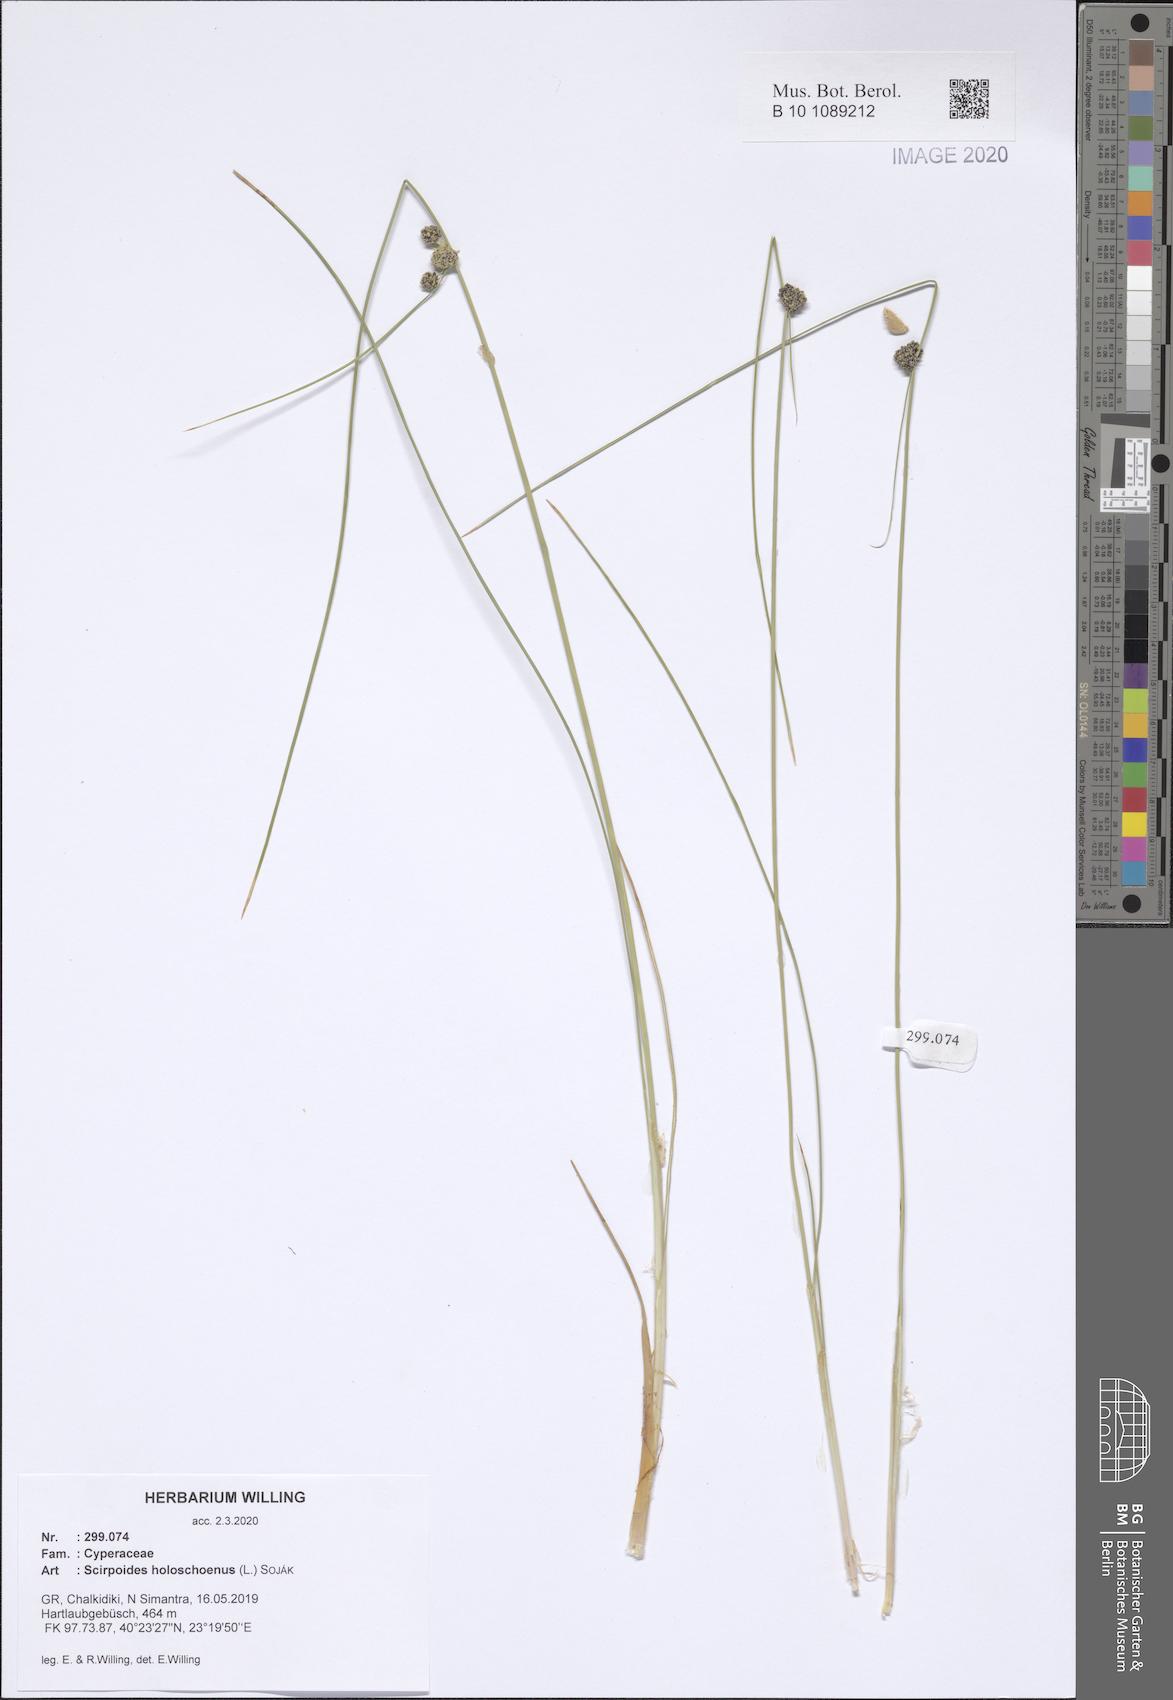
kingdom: Plantae
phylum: Tracheophyta
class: Liliopsida
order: Poales
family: Cyperaceae
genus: Scirpoides
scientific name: Scirpoides holoschoenus
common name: Round-headed club-rush
